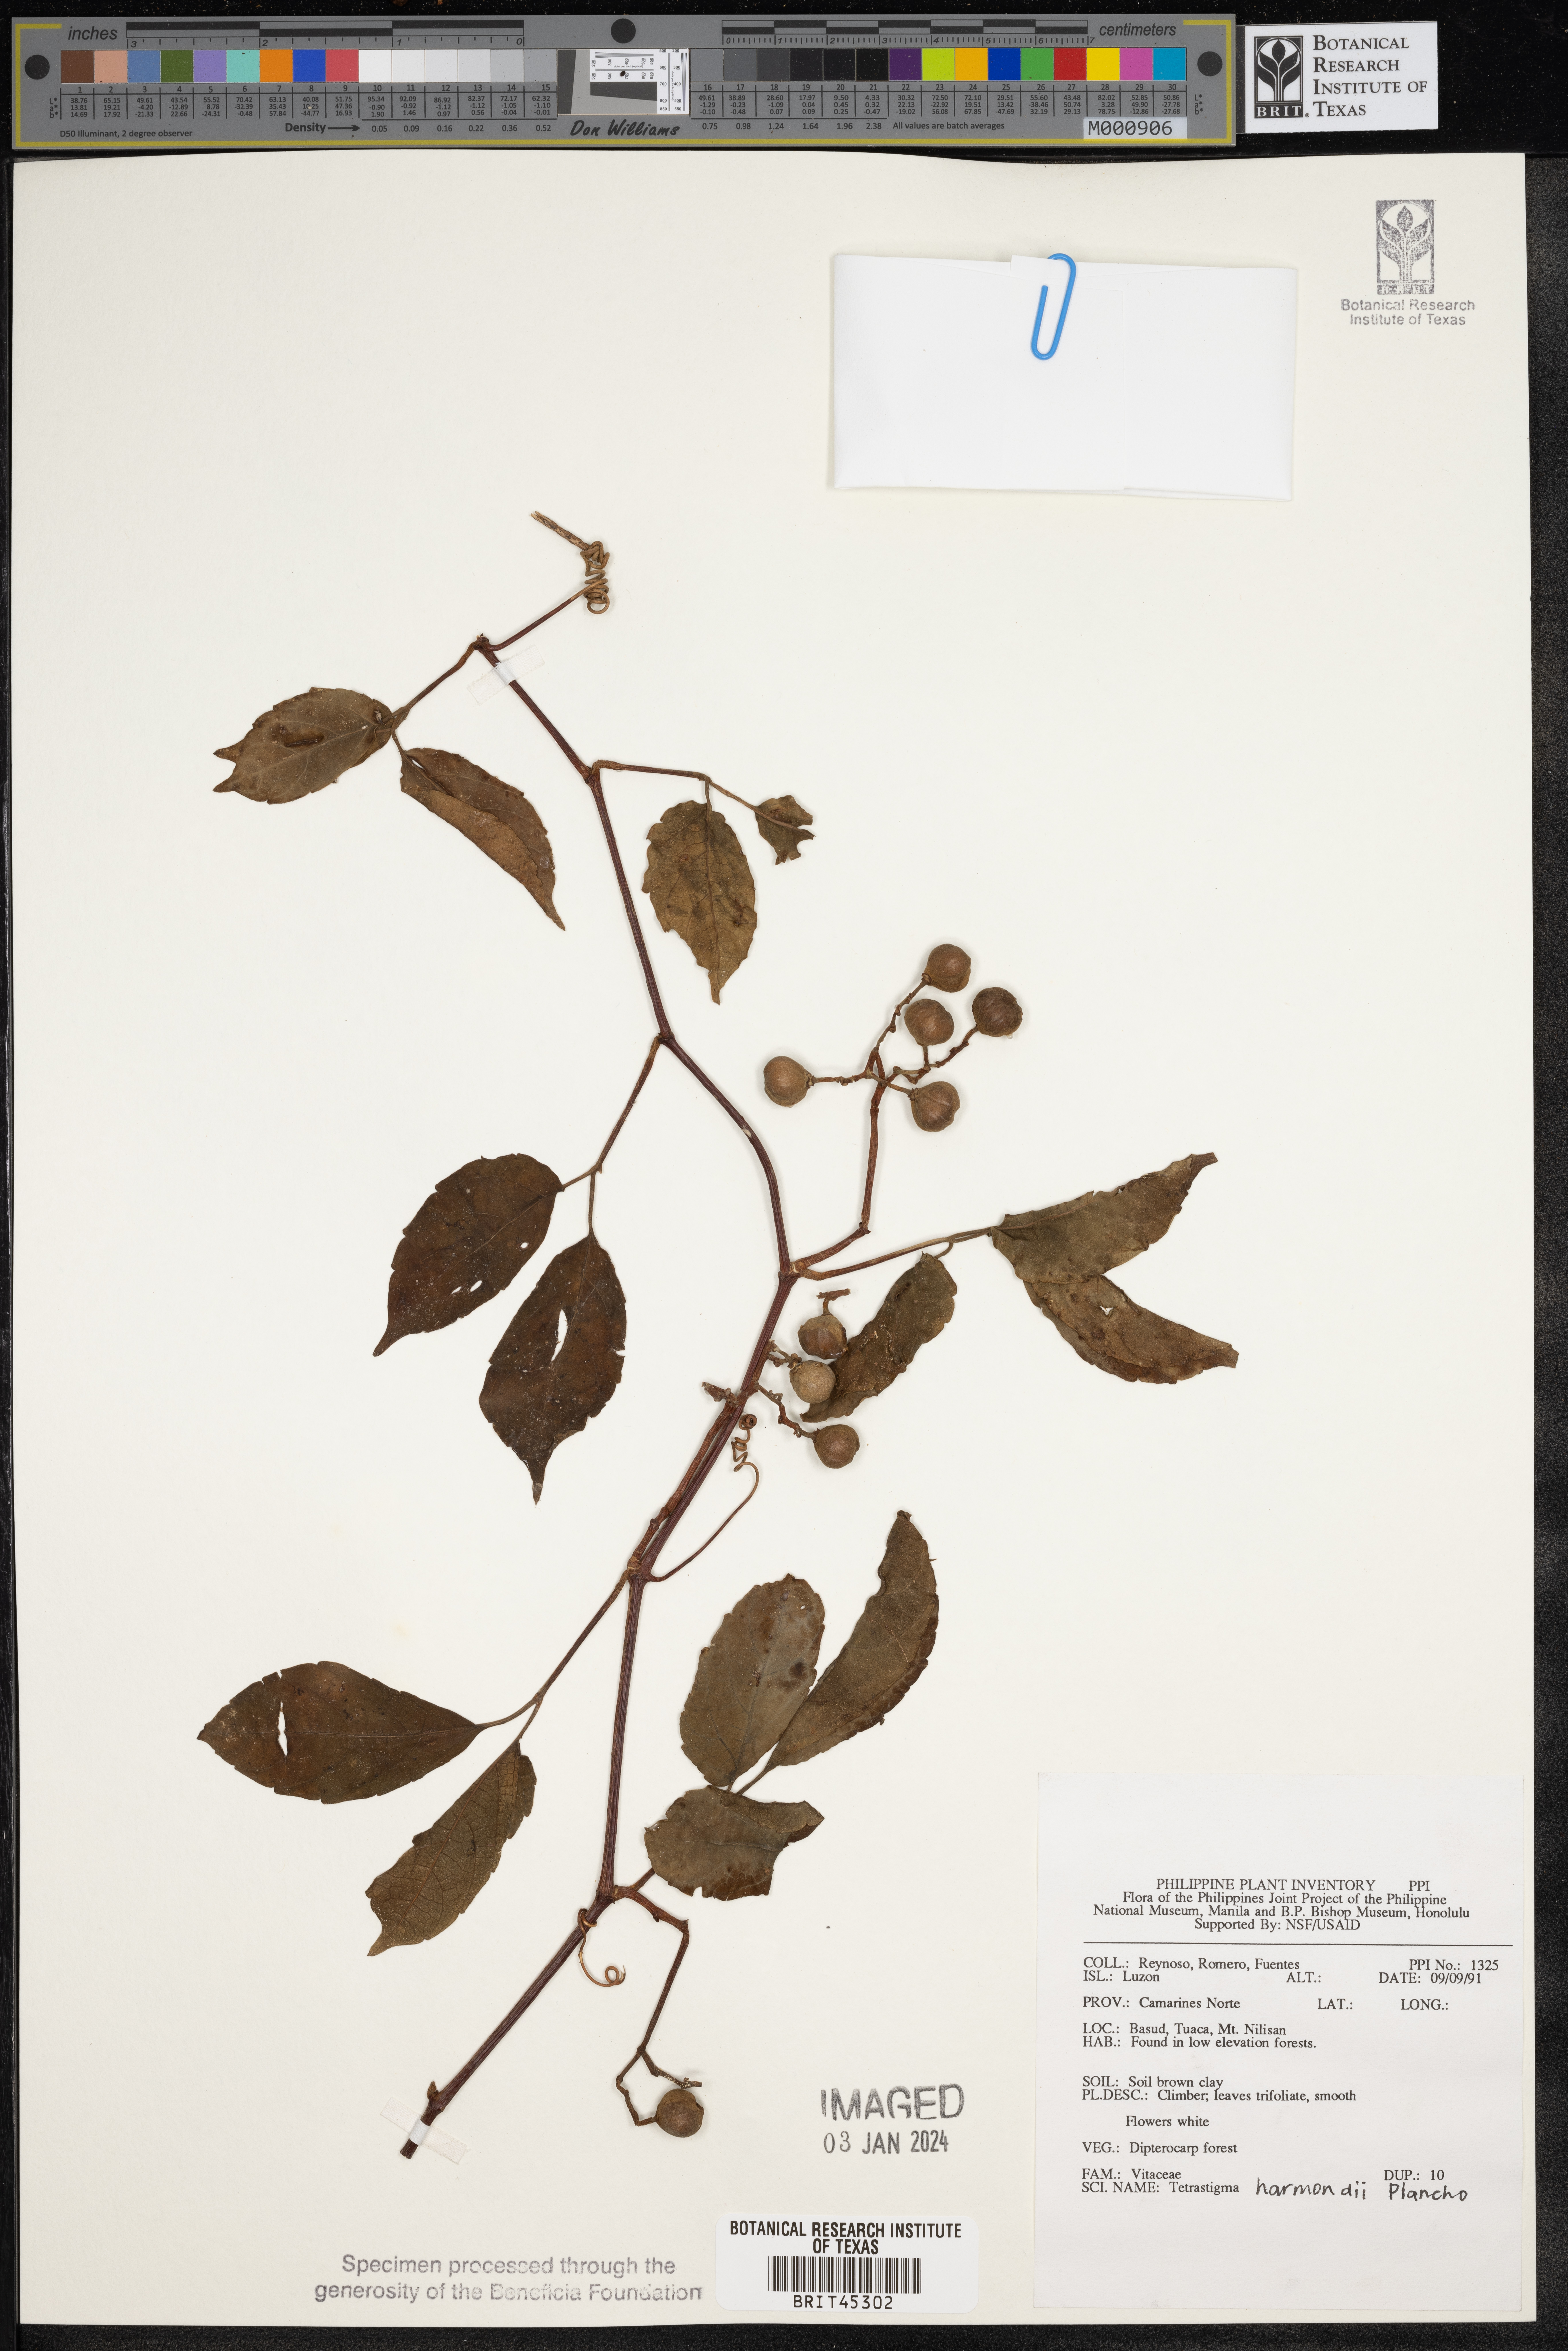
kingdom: Plantae
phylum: Tracheophyta
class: Magnoliopsida
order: Vitales
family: Vitaceae
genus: Tetrastigma
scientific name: Tetrastigma harmandii
